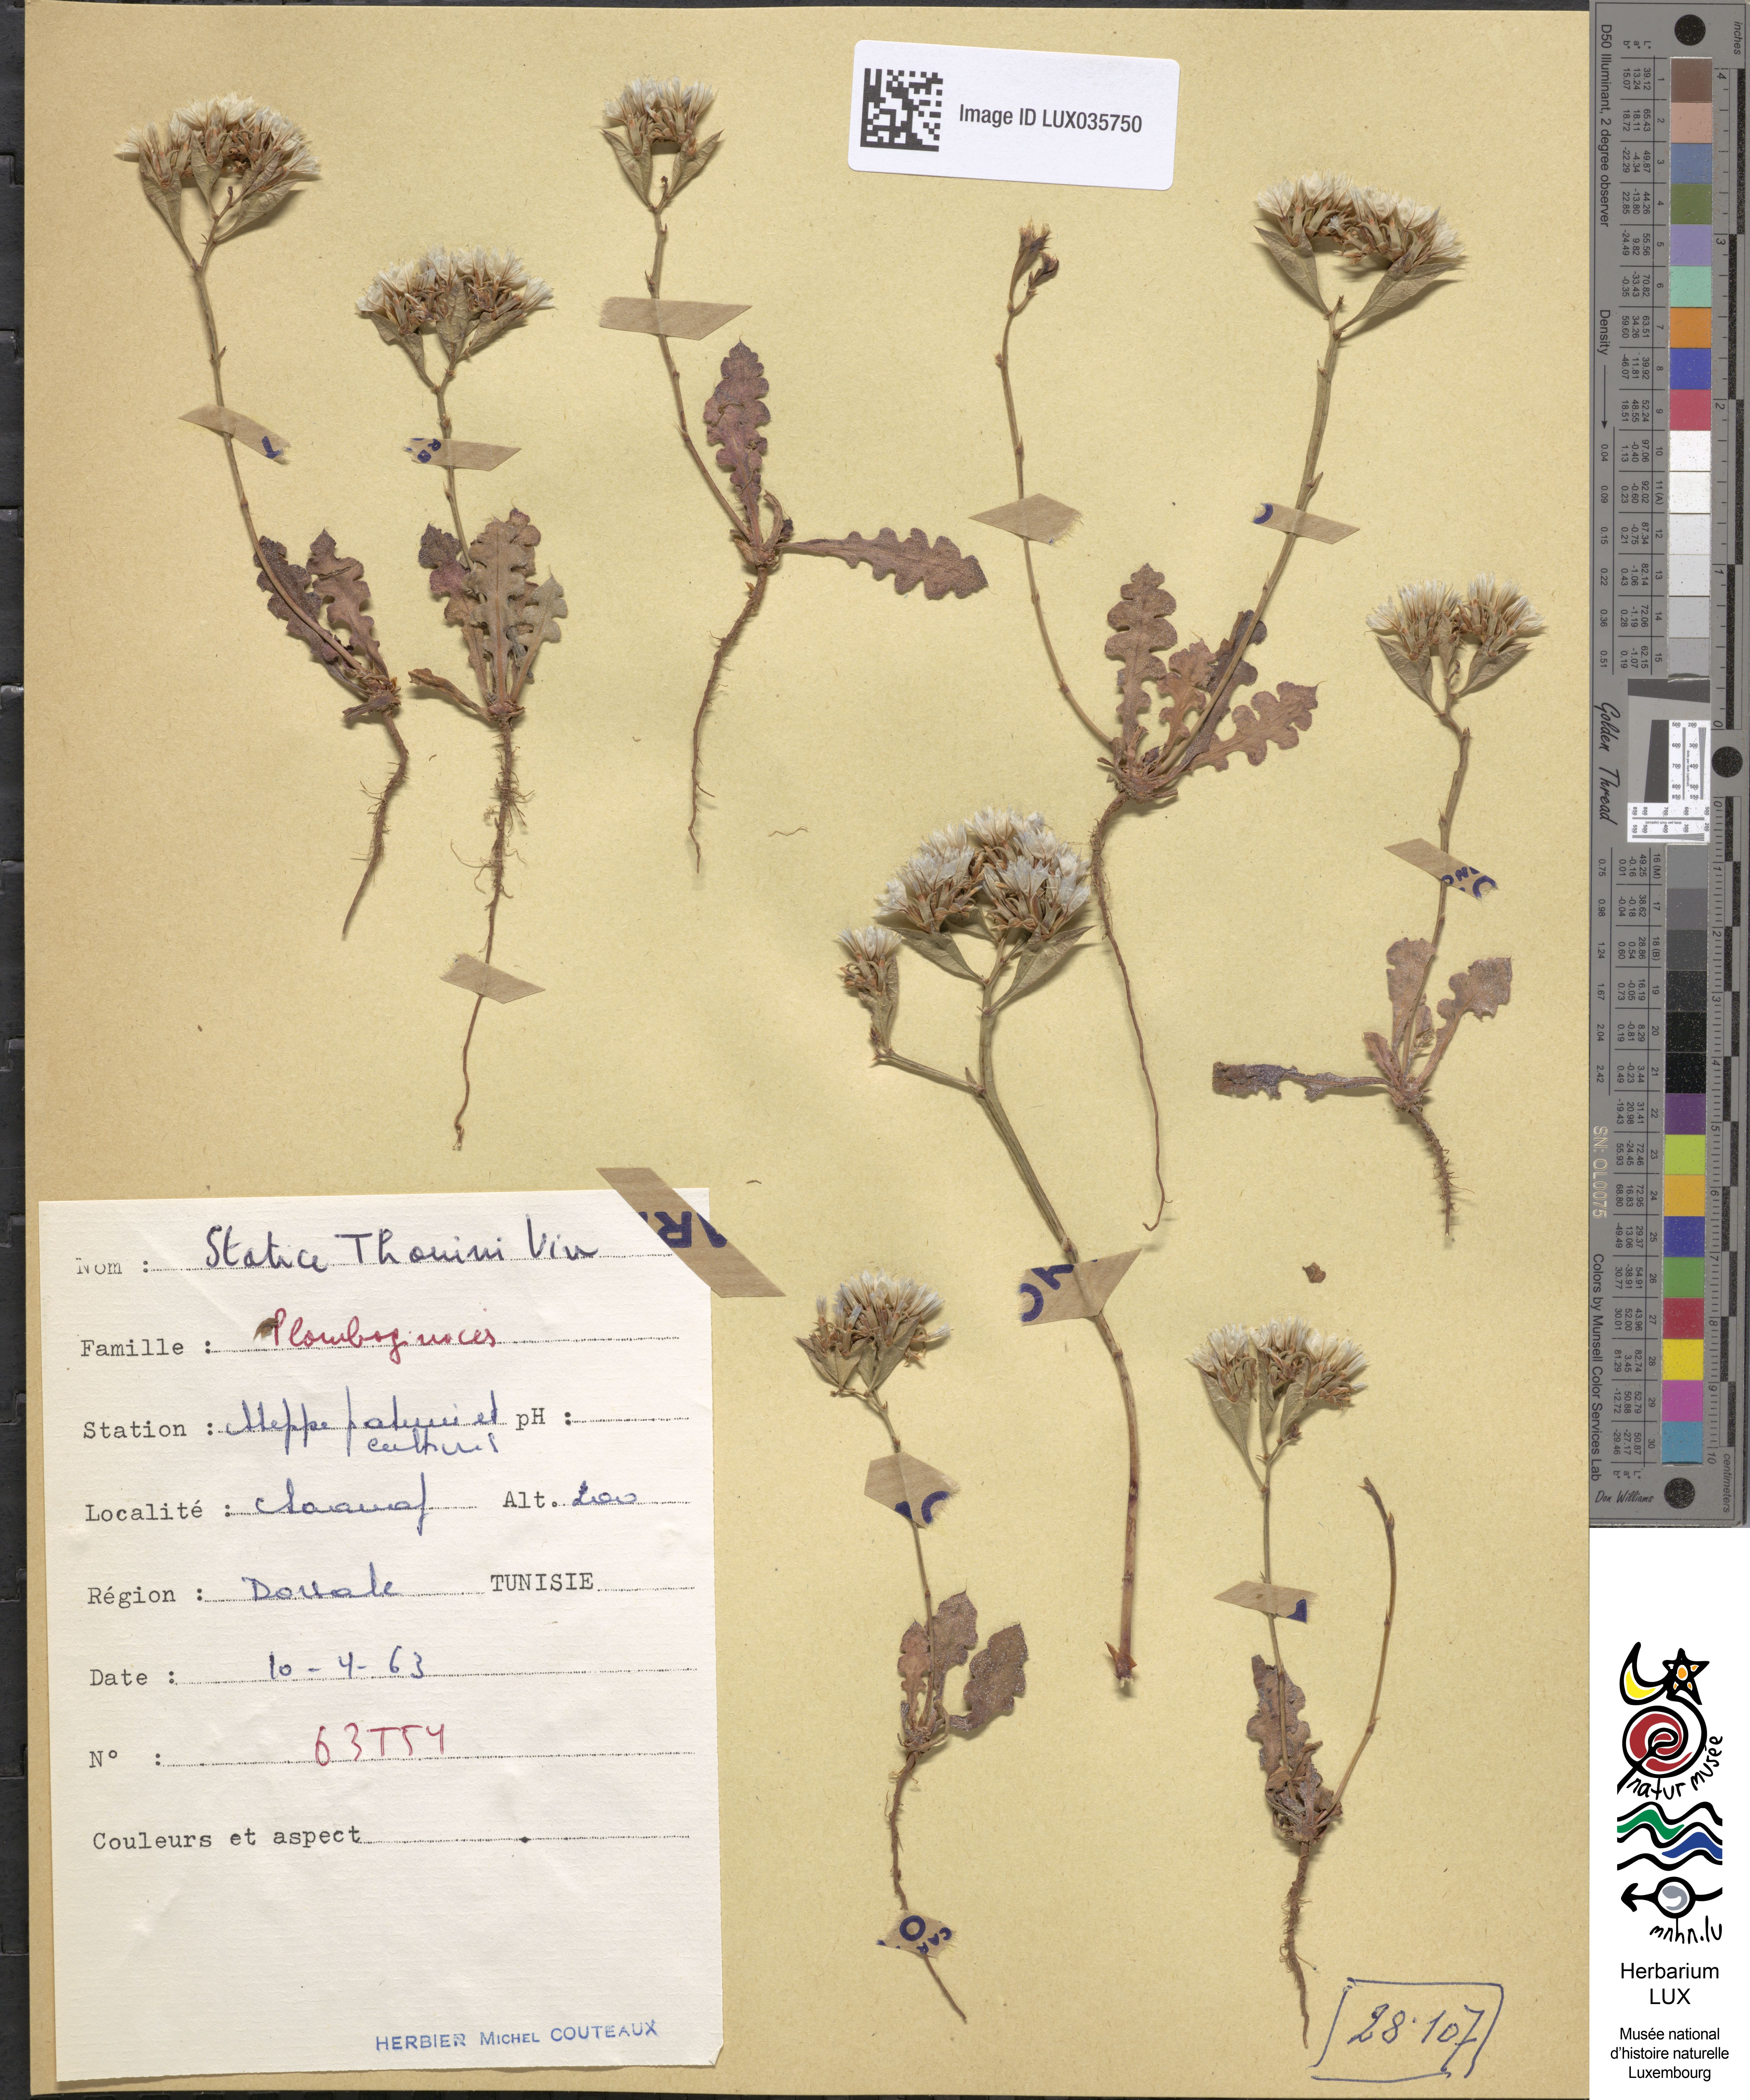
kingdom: Plantae
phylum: Tracheophyta
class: Magnoliopsida
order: Caryophyllales
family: Plumbaginaceae
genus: Limonium
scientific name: Limonium lobatum
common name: Winged sea-lavender
